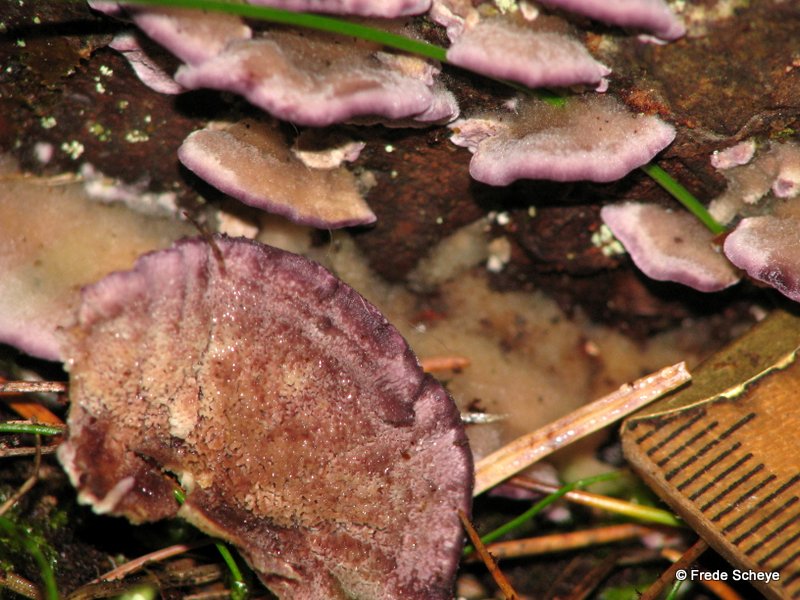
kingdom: Fungi
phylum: Basidiomycota
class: Agaricomycetes
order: Hymenochaetales
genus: Trichaptum
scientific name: Trichaptum abietinum
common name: almindelig violporesvamp
